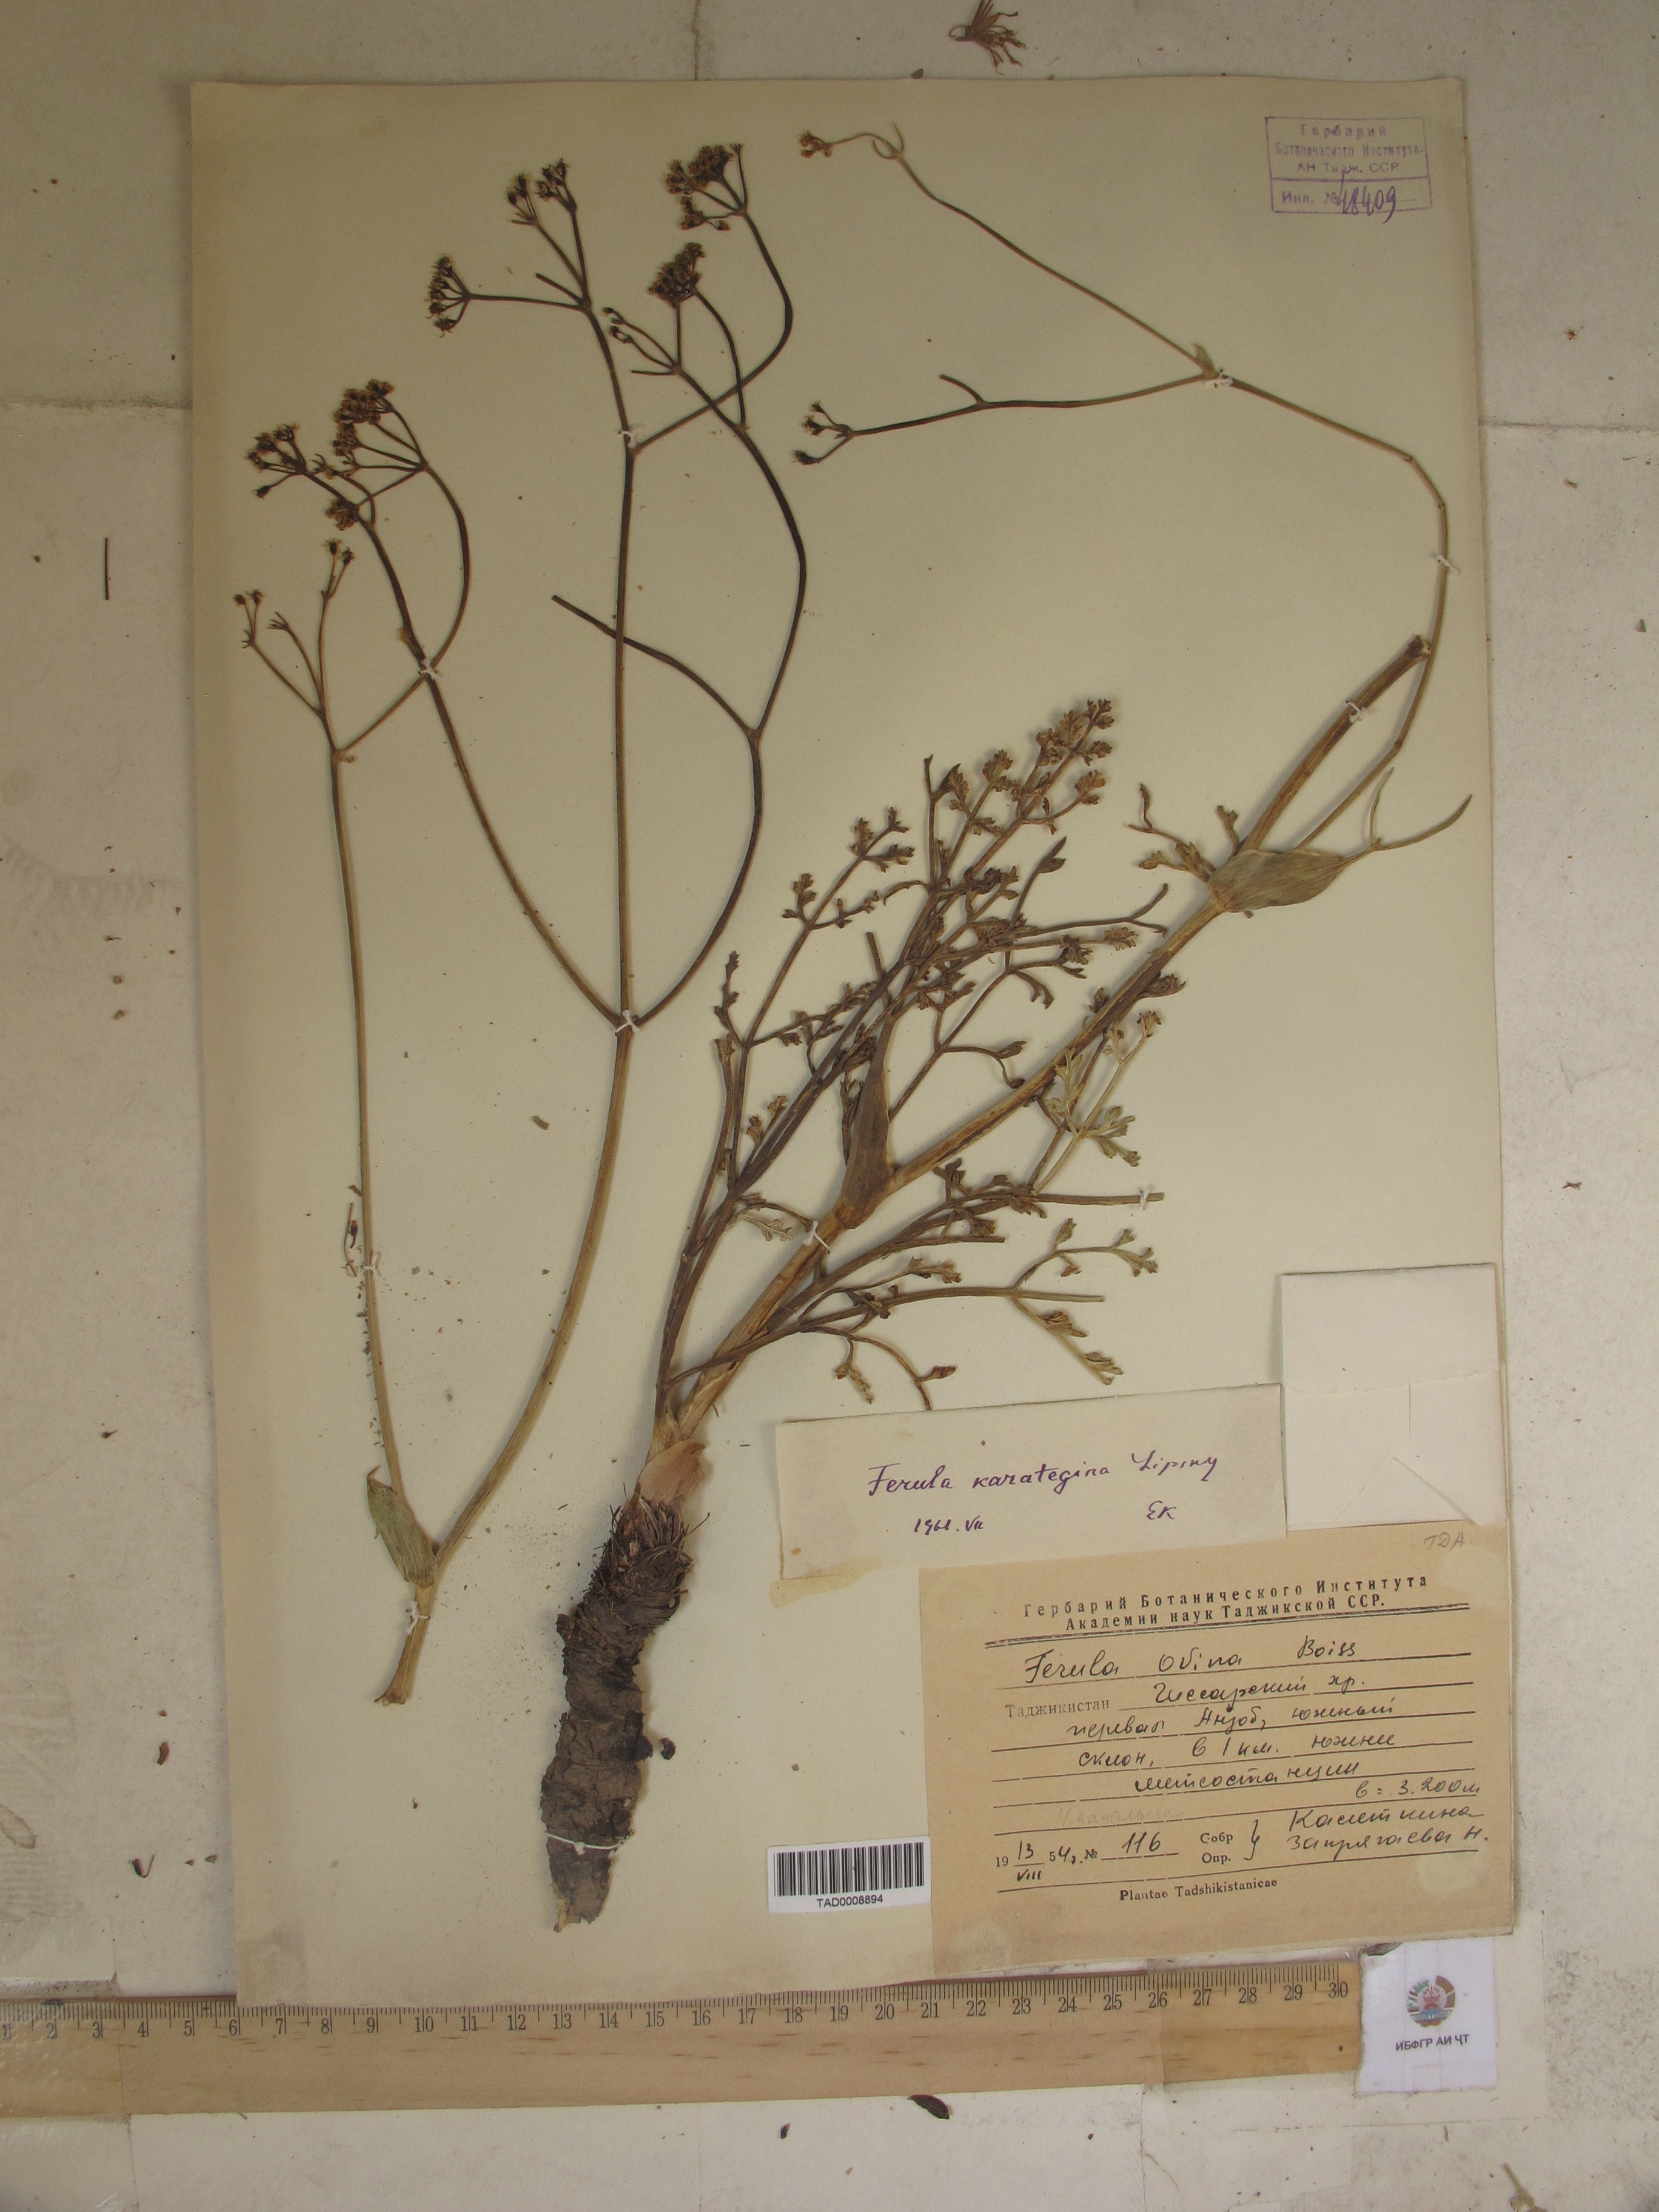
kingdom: Plantae
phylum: Tracheophyta
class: Magnoliopsida
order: Apiales
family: Apiaceae
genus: Ferula
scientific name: Ferula karategina
